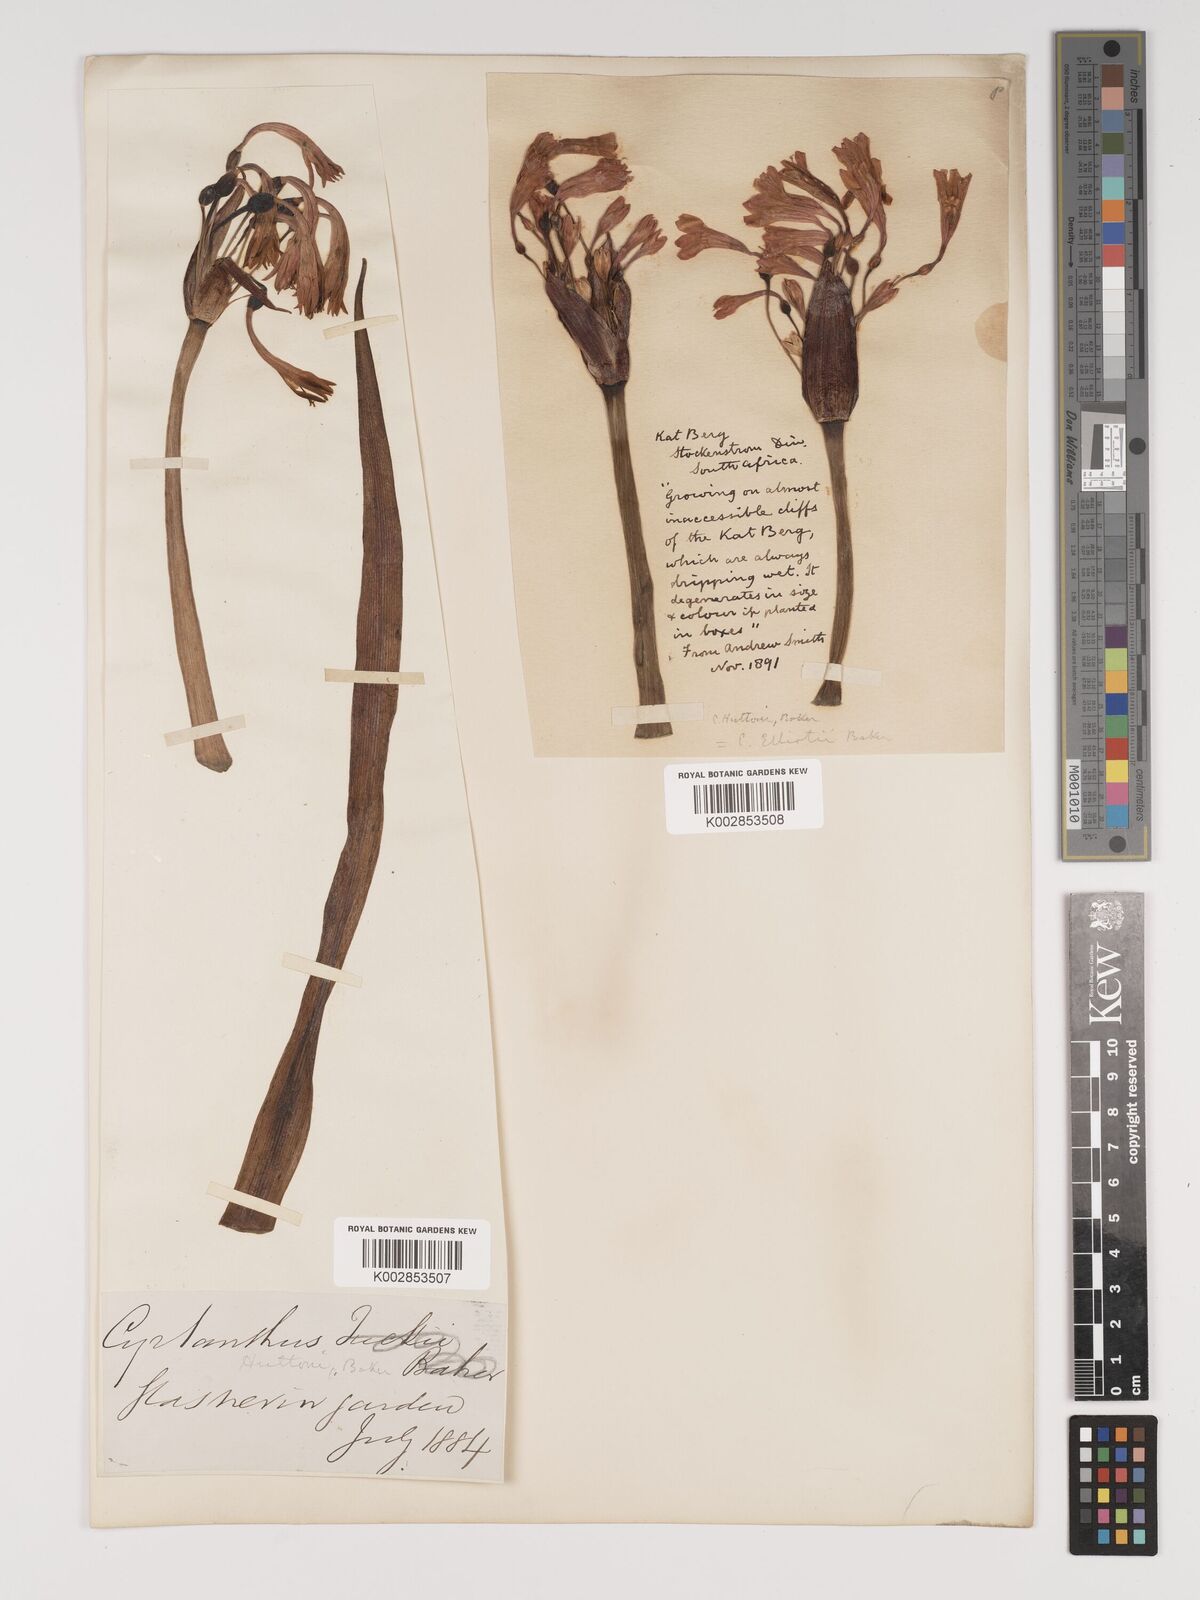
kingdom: Plantae
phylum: Tracheophyta
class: Liliopsida
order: Asparagales
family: Amaryllidaceae
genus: Cyrtanthus
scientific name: Cyrtanthus huttonii
